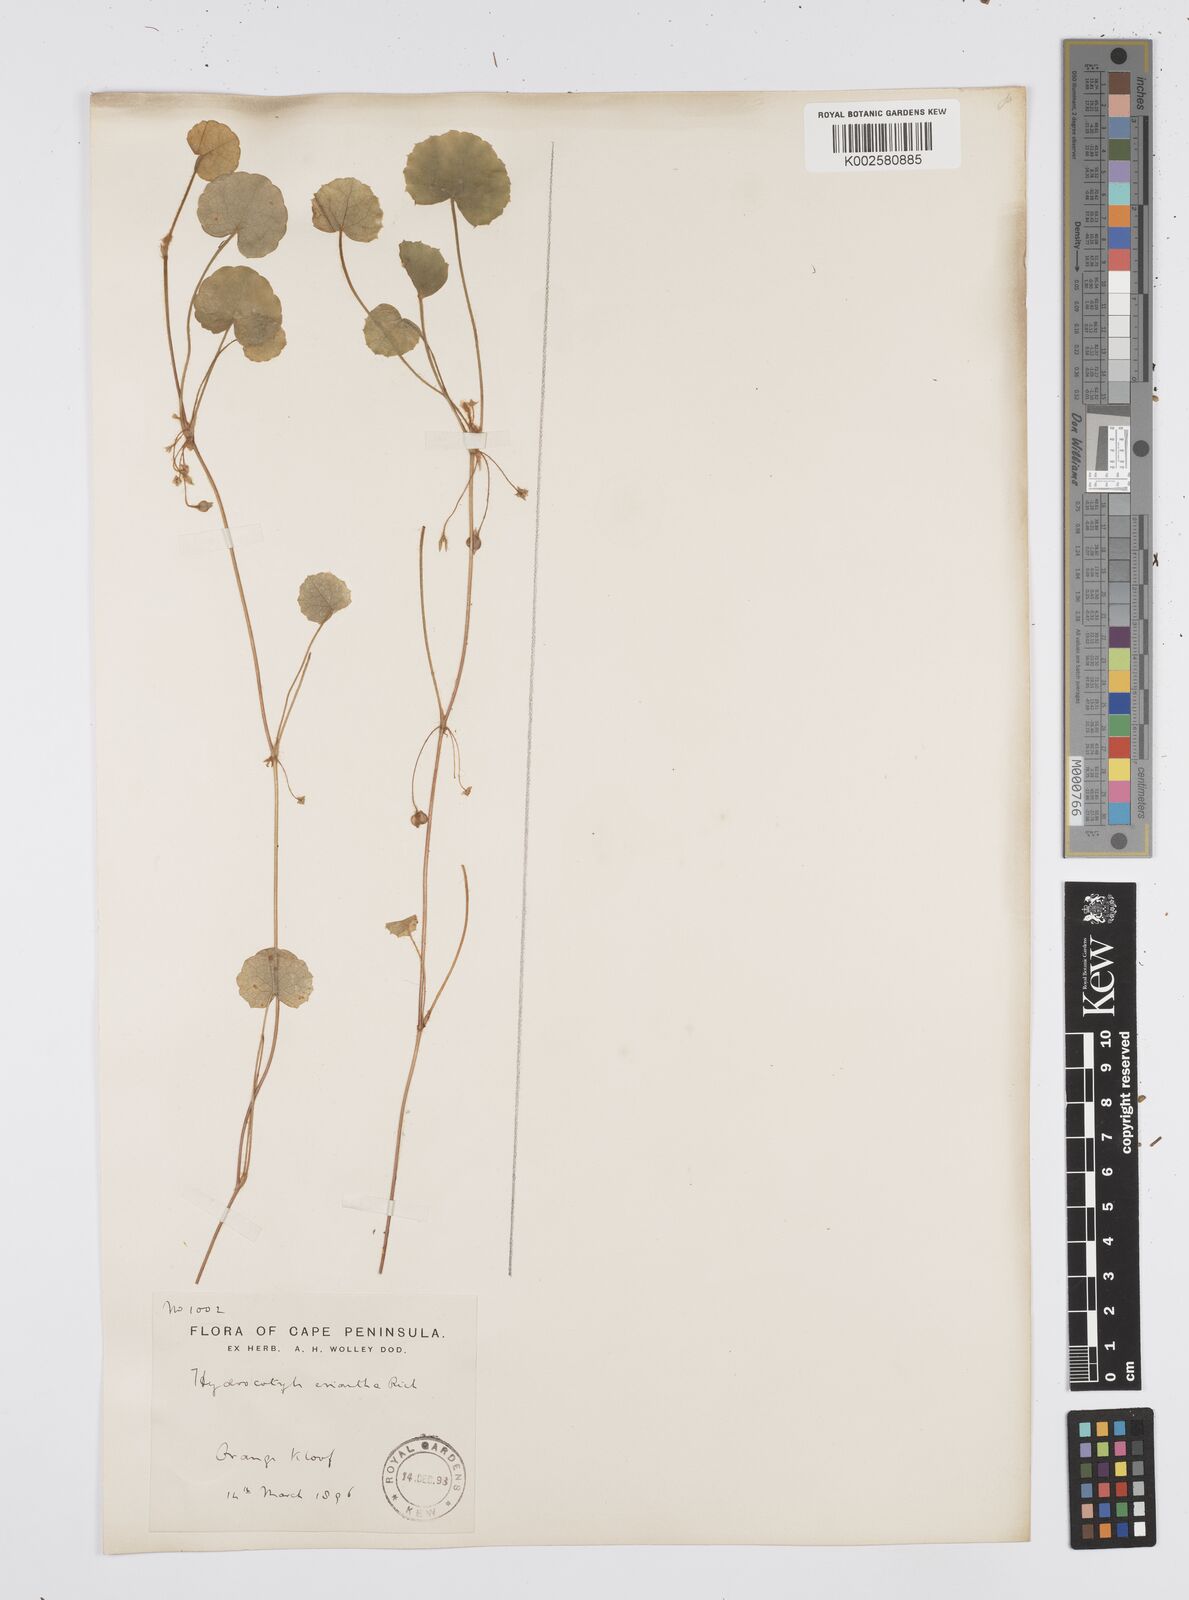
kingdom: Plantae
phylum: Tracheophyta
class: Magnoliopsida
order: Apiales
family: Apiaceae
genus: Centella
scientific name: Centella eriantha
